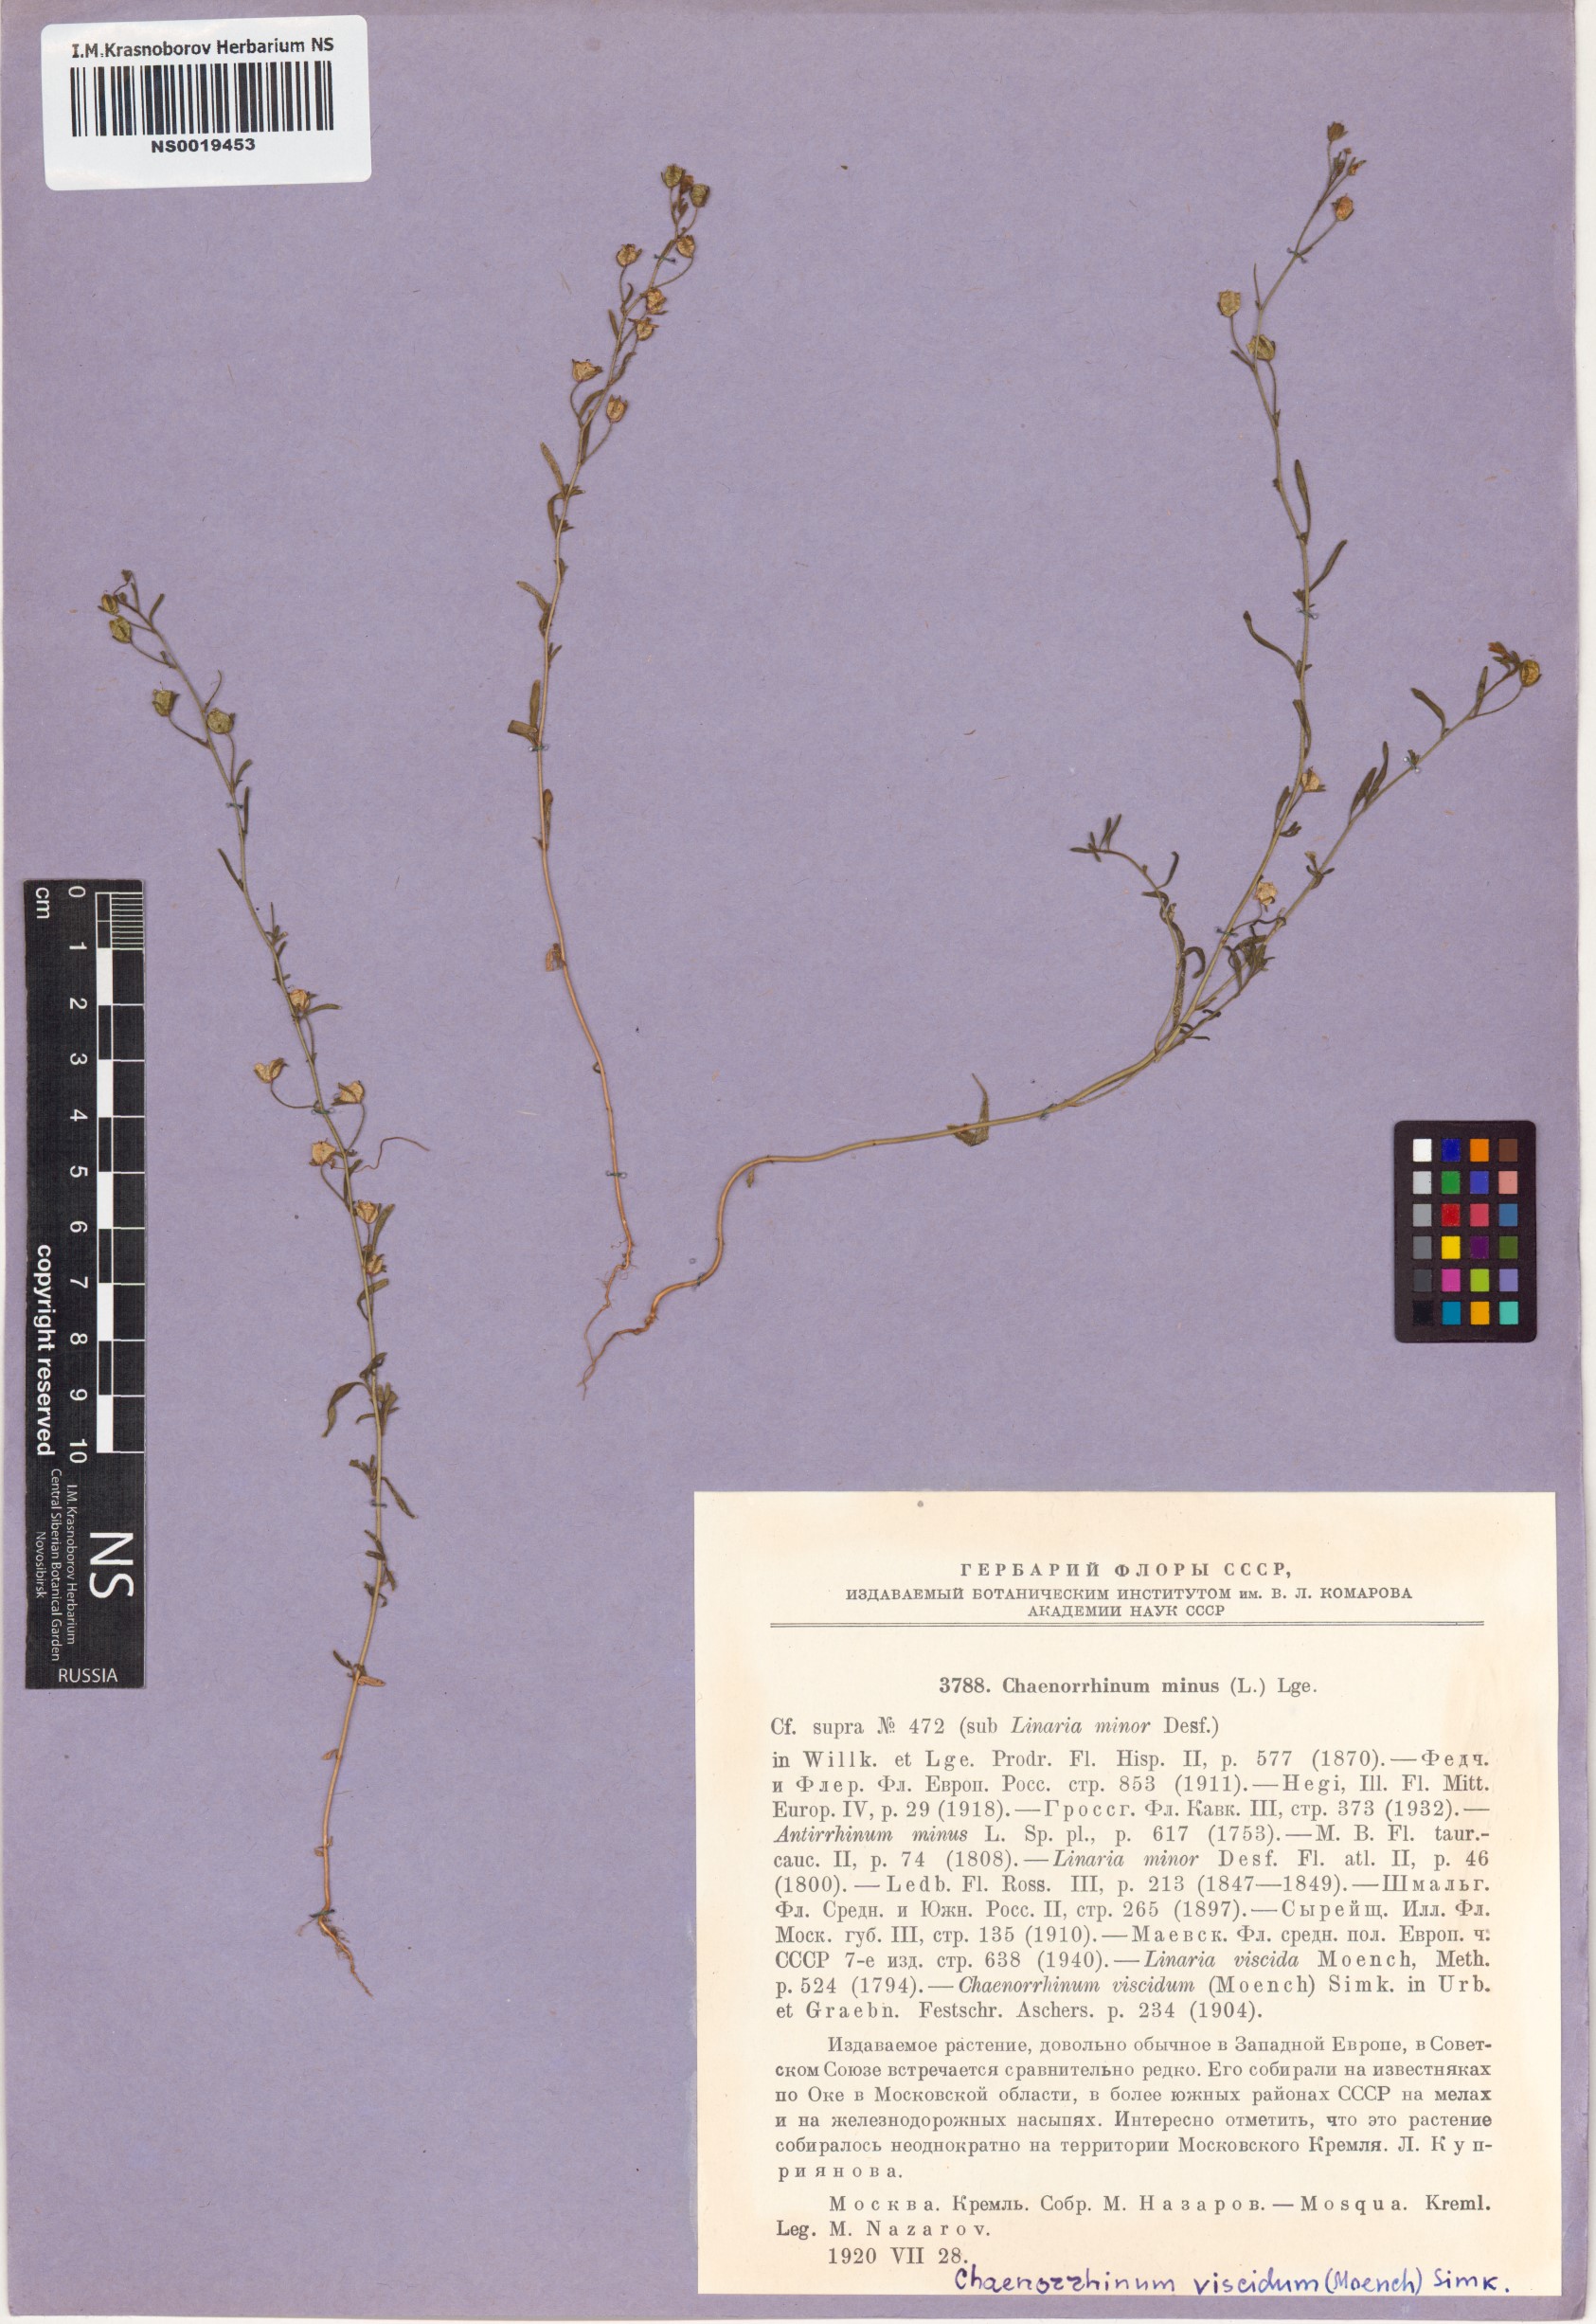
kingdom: Plantae
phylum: Tracheophyta
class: Magnoliopsida
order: Lamiales
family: Plantaginaceae
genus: Chaenorhinum
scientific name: Chaenorhinum minus
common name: Dwarf snapdragon
